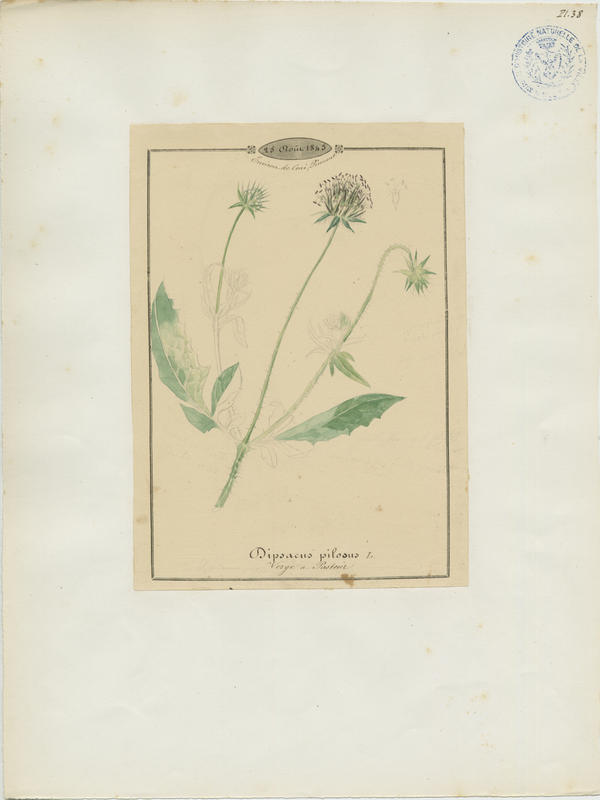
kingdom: Plantae
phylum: Tracheophyta
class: Magnoliopsida
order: Dipsacales
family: Caprifoliaceae
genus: Dipsacus
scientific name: Dipsacus pilosus
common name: Small teasel
